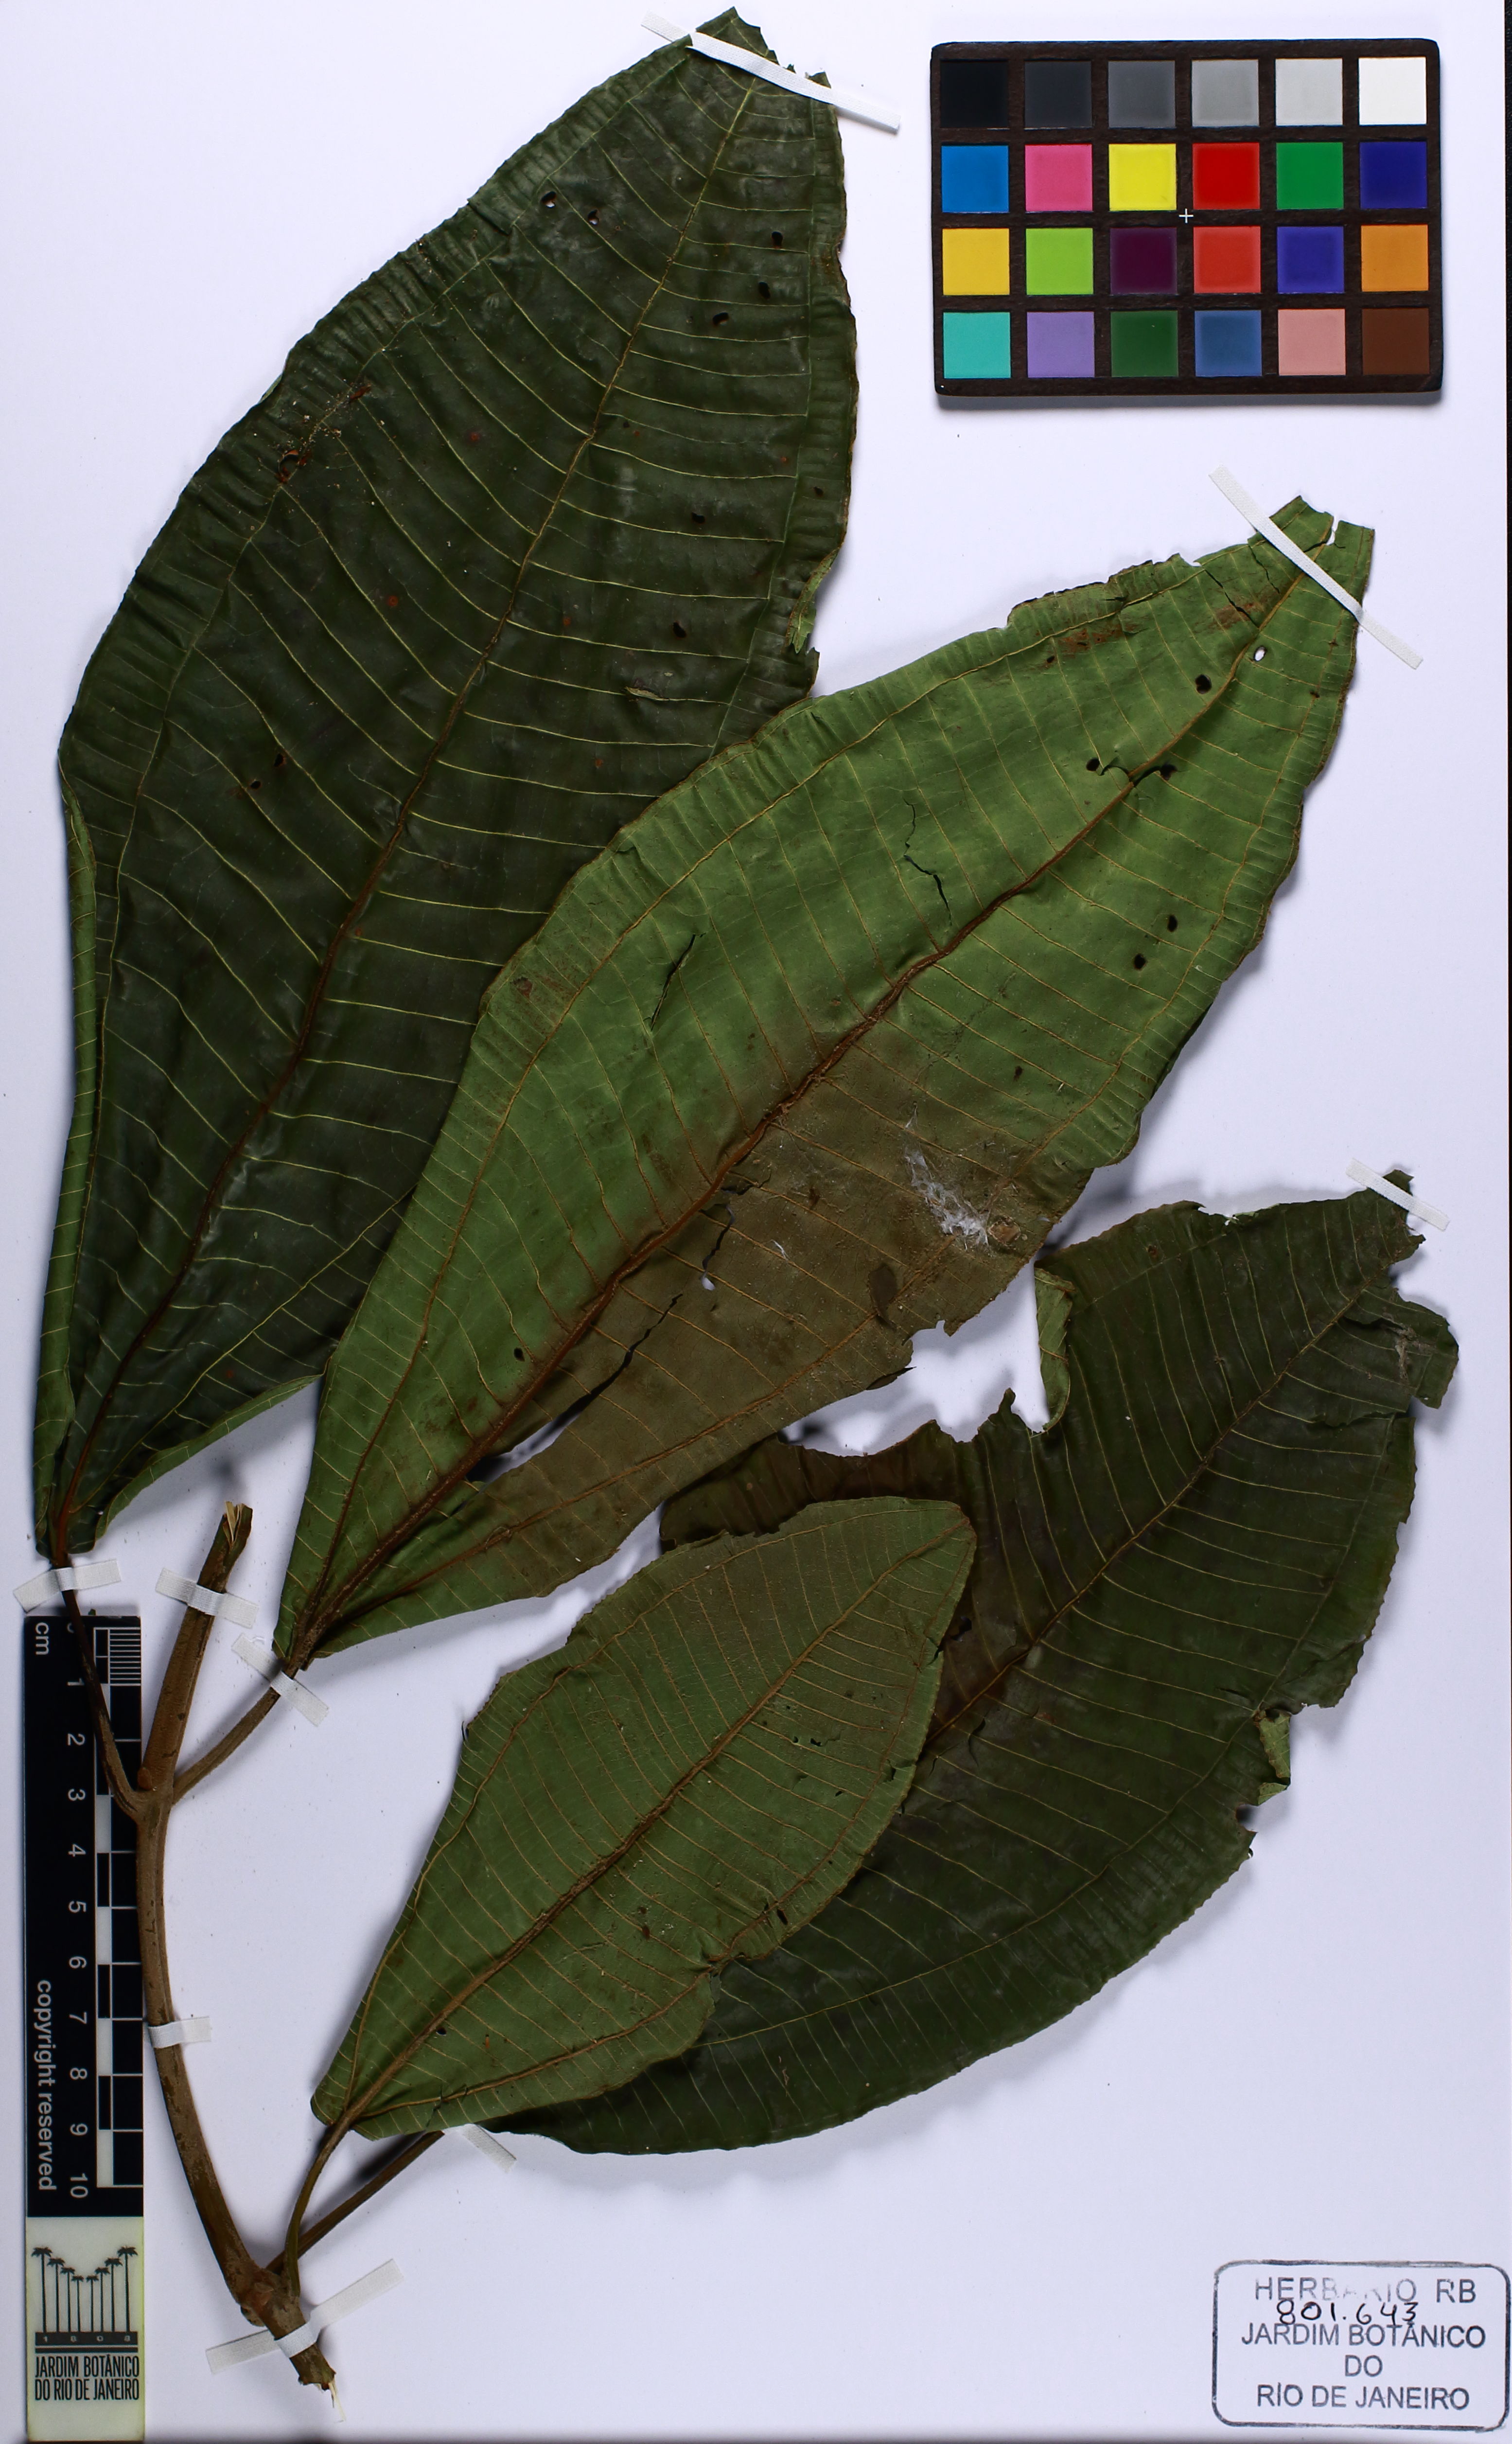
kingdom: Plantae
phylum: Tracheophyta
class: Magnoliopsida
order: Myrtales
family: Melastomataceae
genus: Miconia
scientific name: Miconia calvescens
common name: Purple plague
